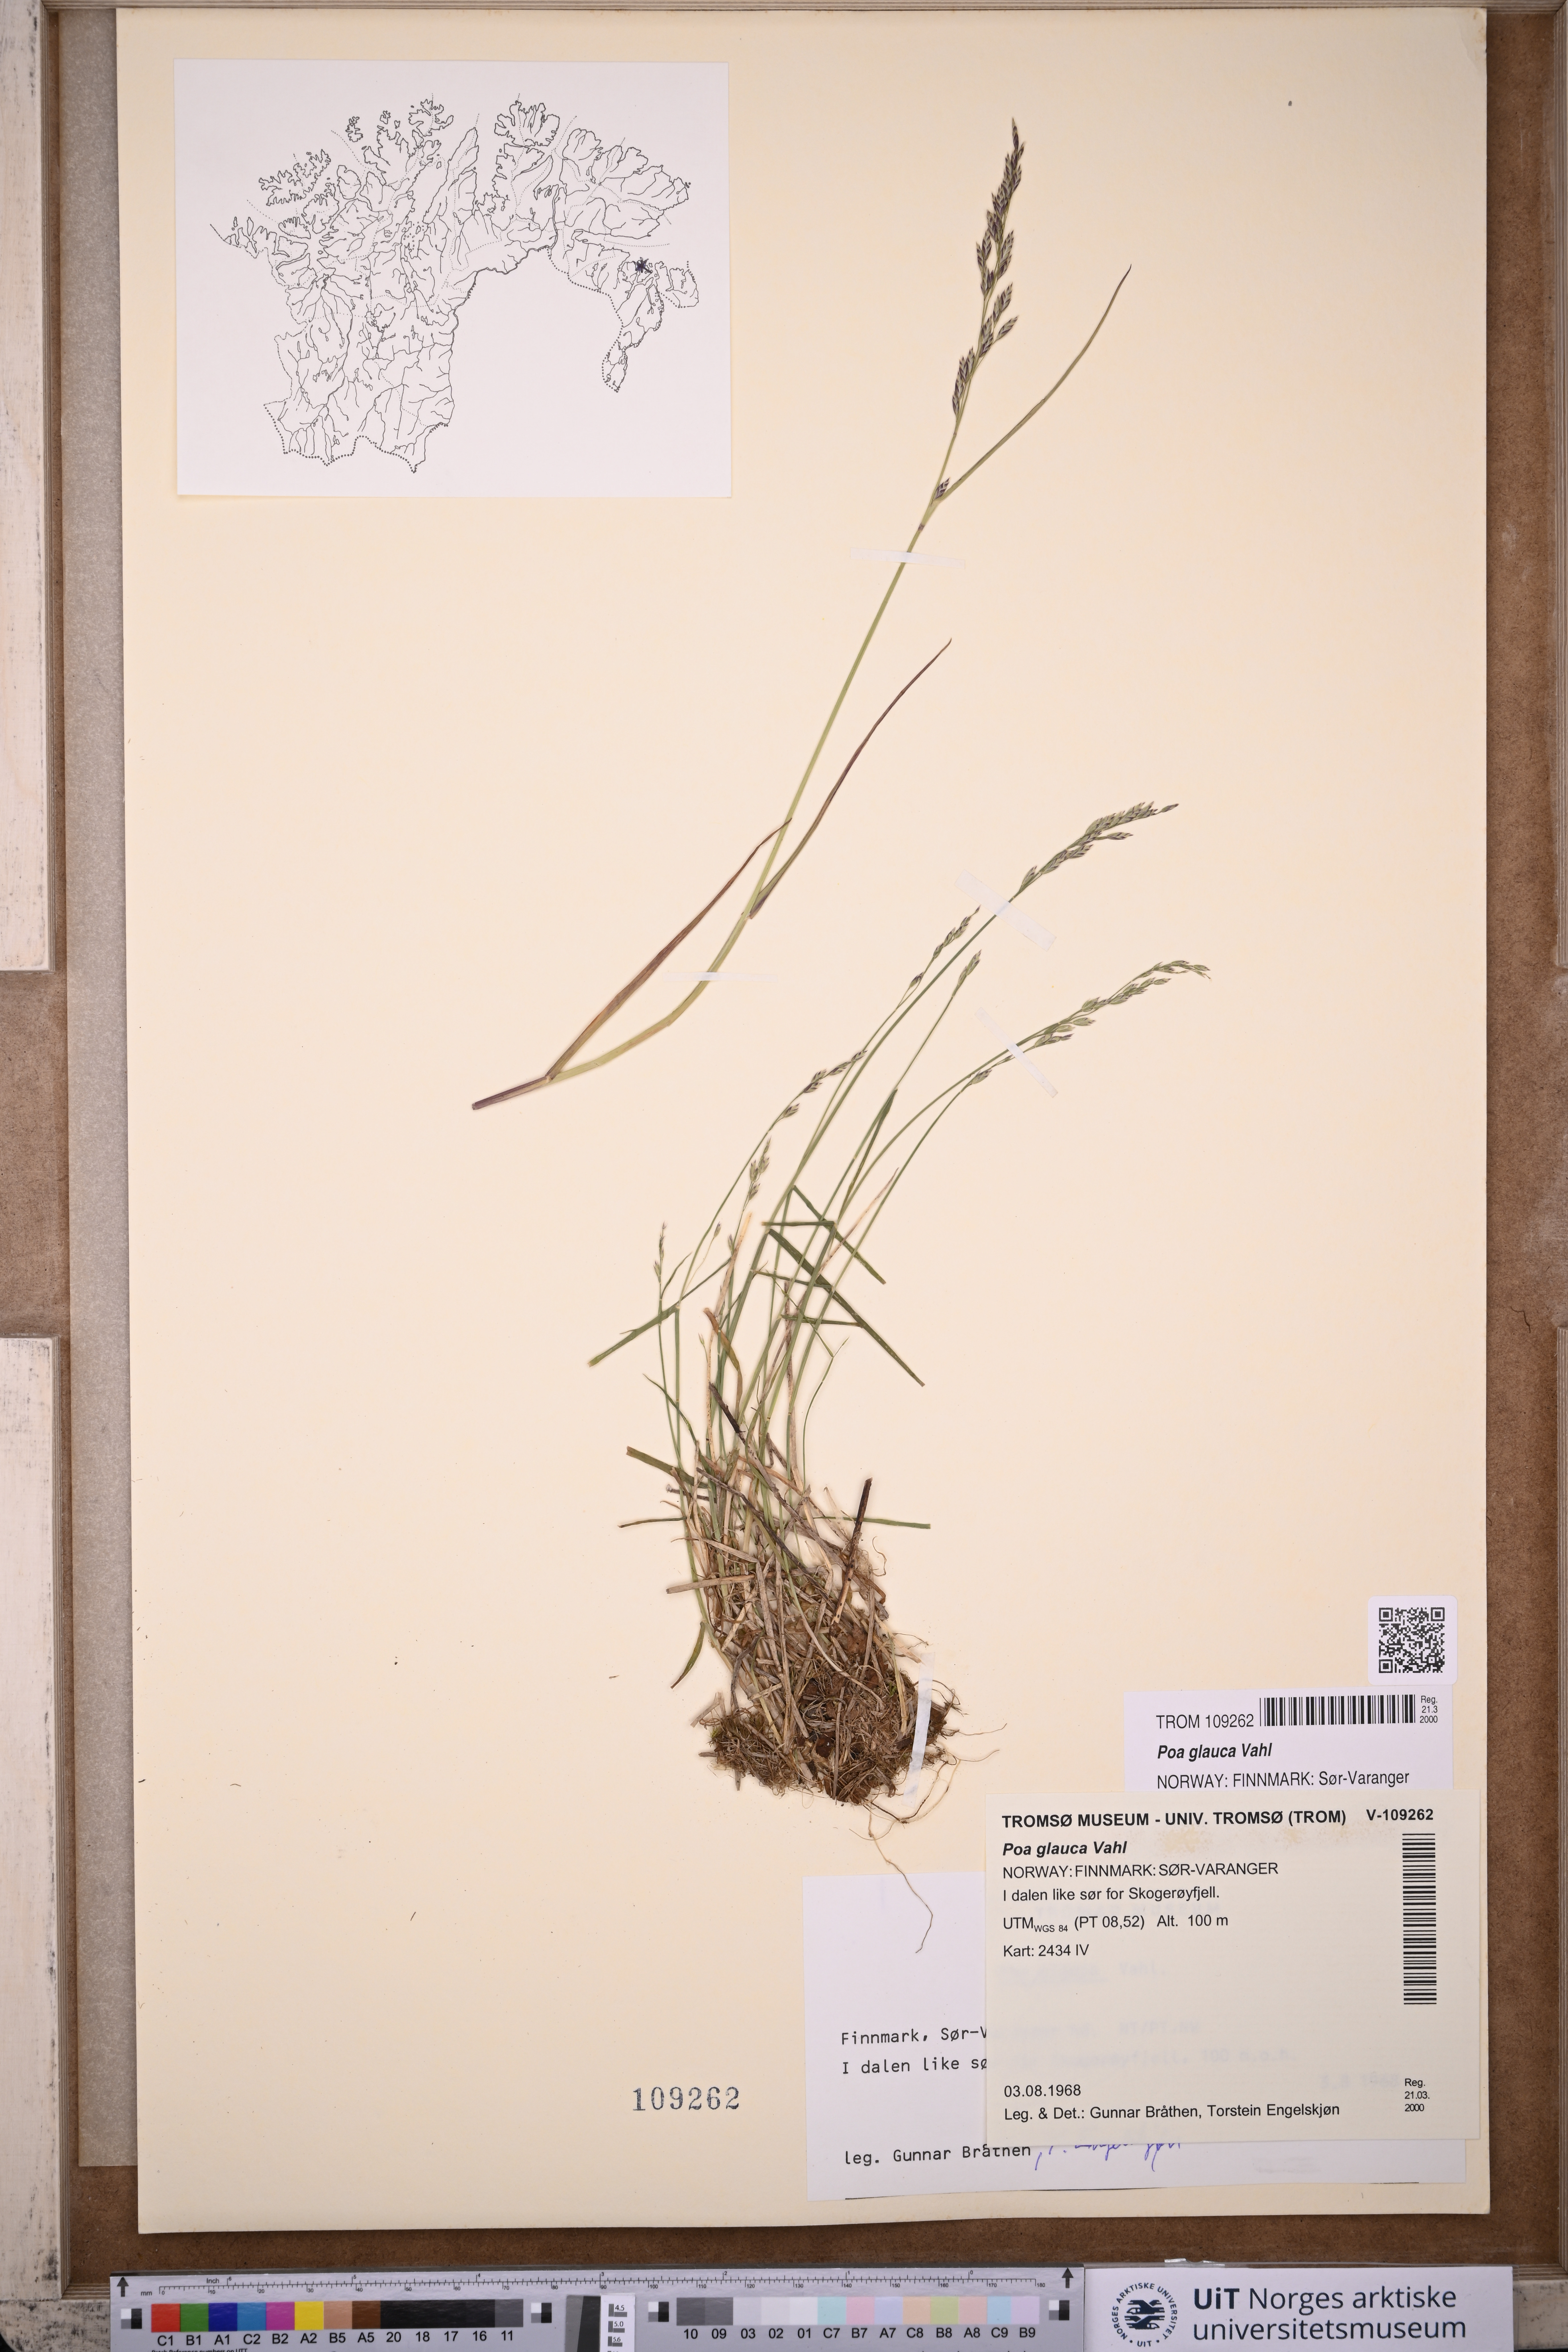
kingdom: Plantae
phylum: Tracheophyta
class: Liliopsida
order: Poales
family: Poaceae
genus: Poa
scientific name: Poa glauca
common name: Glaucous bluegrass
